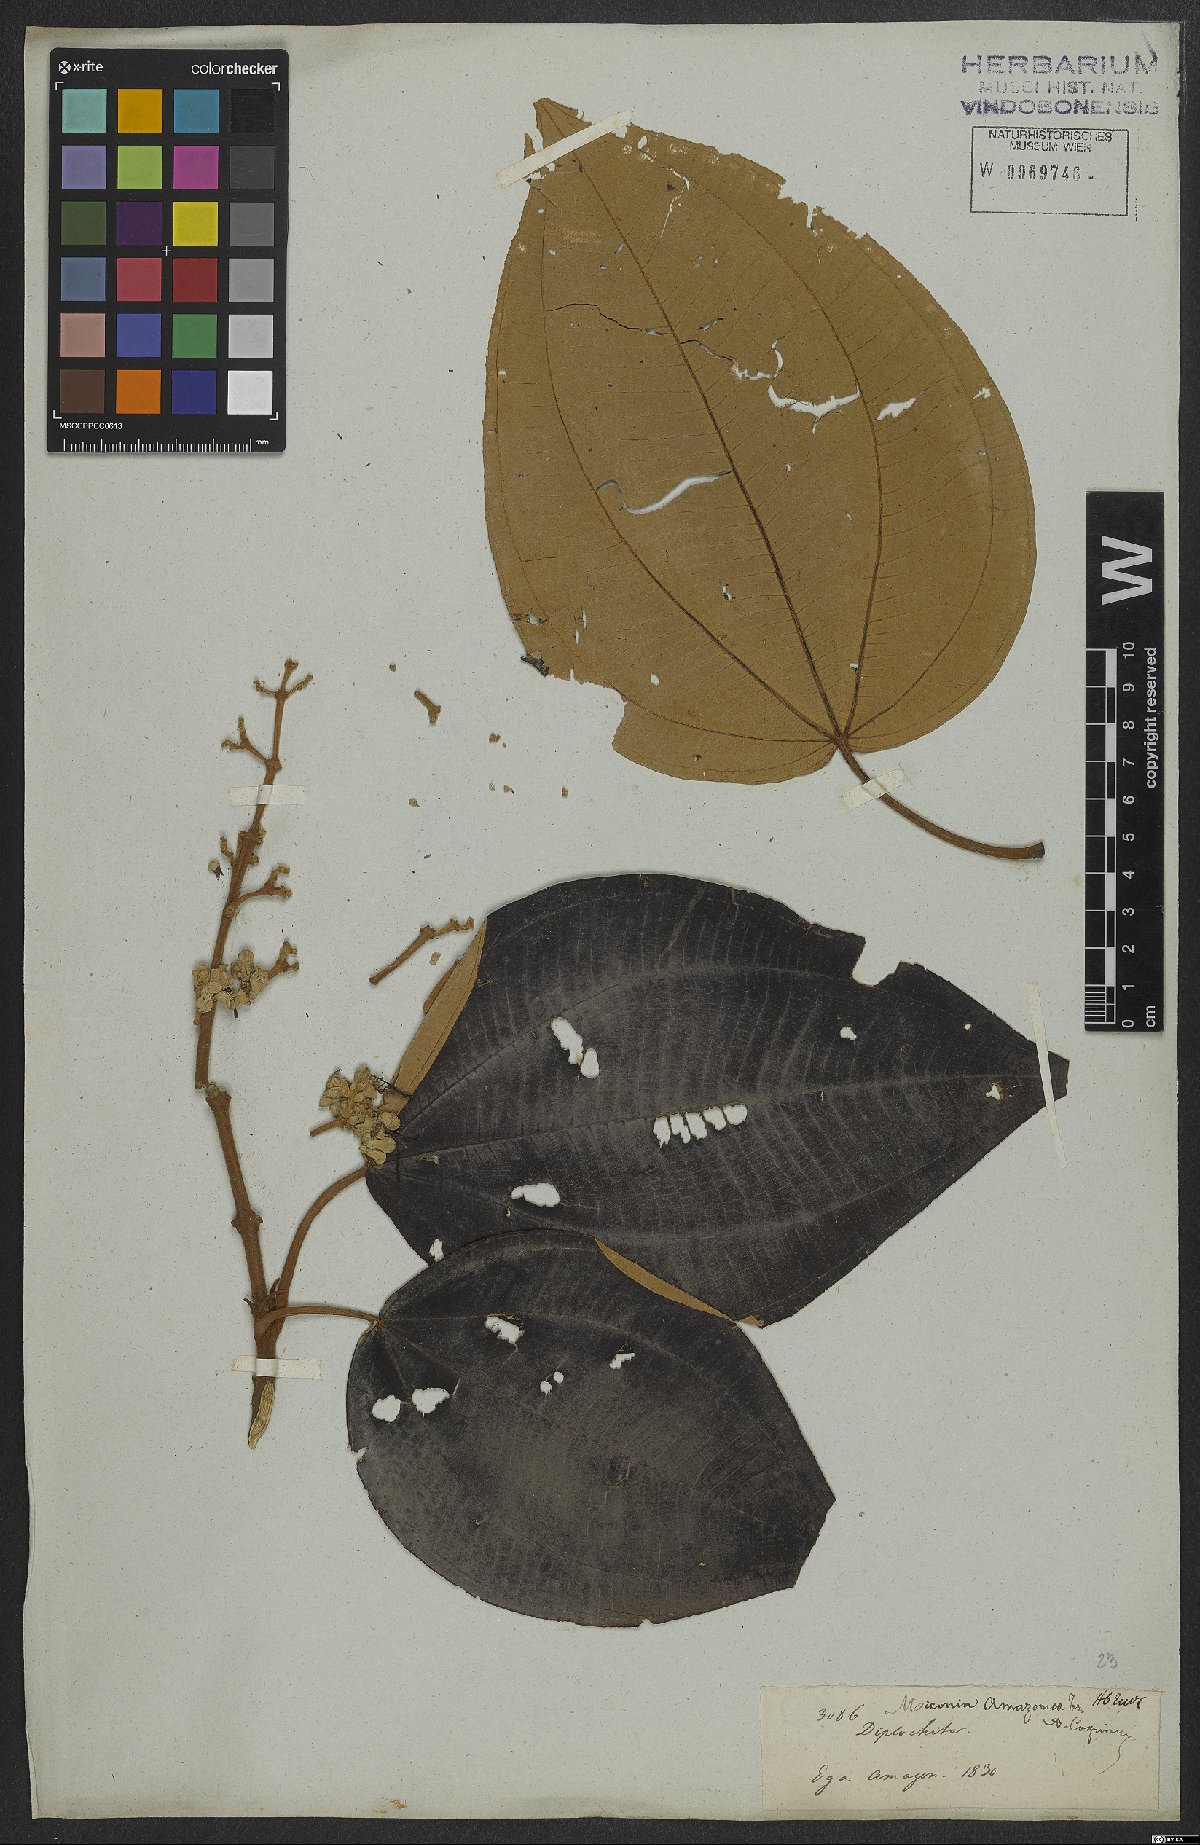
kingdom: Plantae
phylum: Tracheophyta
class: Magnoliopsida
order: Myrtales
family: Melastomataceae
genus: Miconia
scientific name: Miconia amazonica
